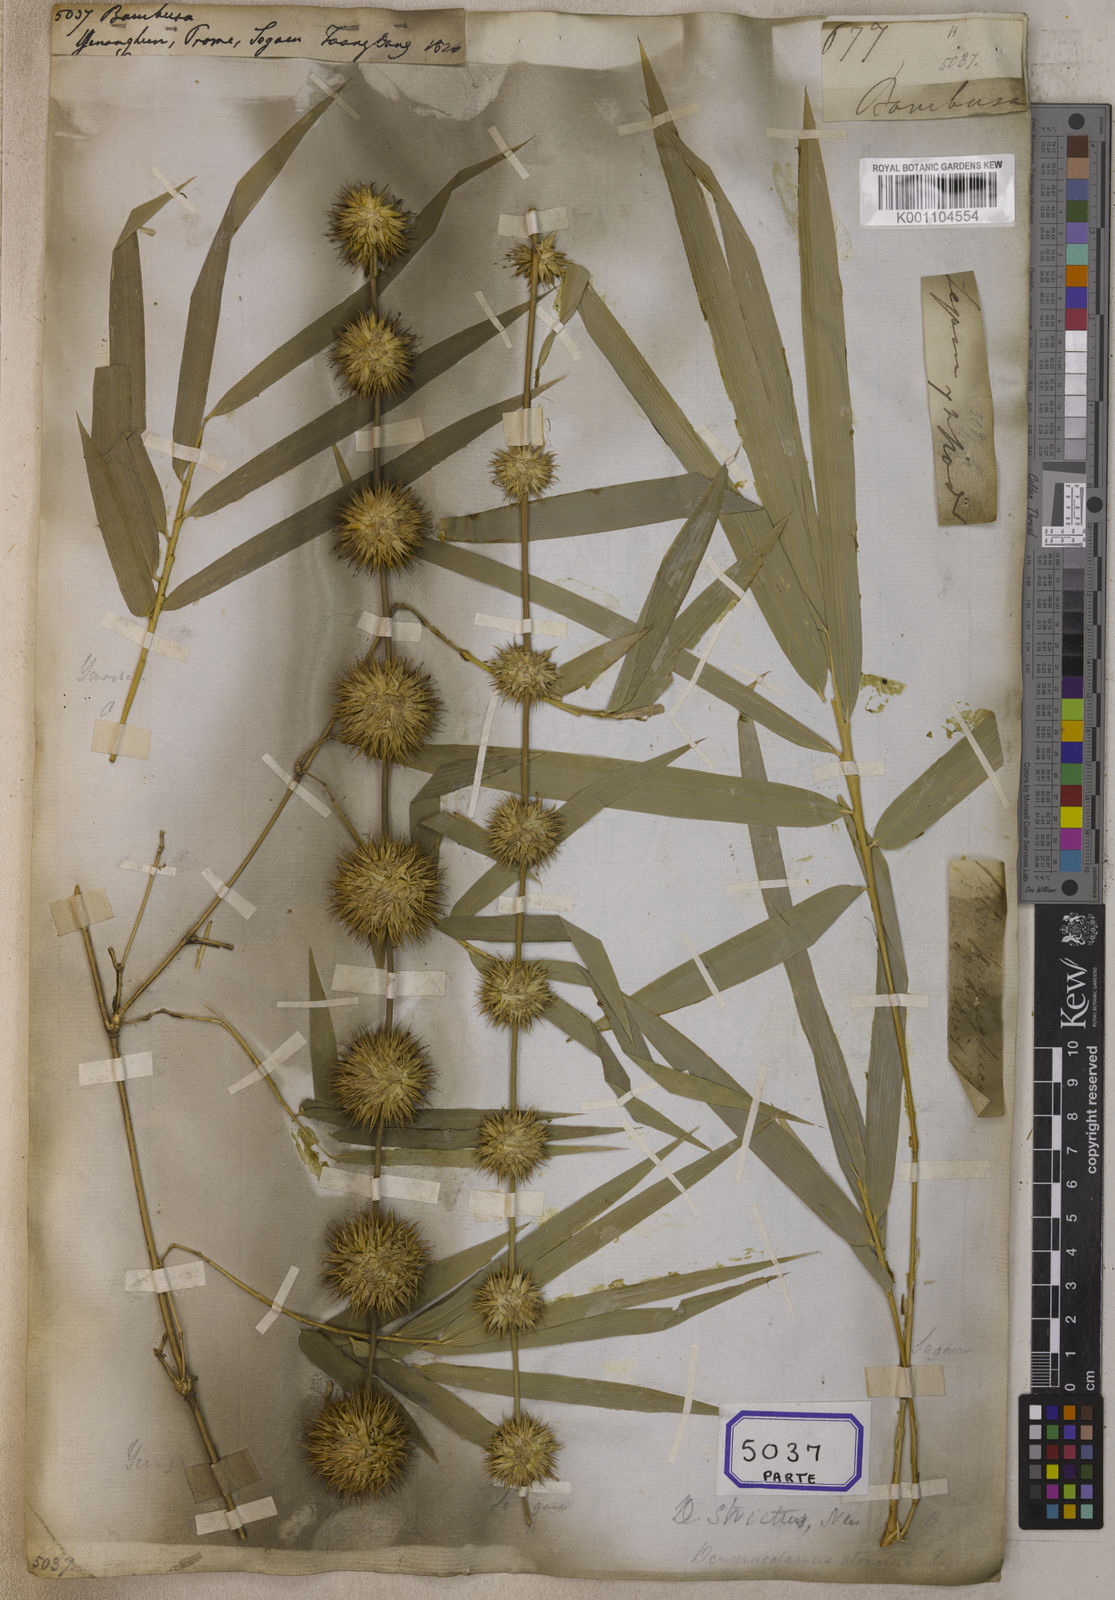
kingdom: Plantae
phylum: Tracheophyta
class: Liliopsida
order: Poales
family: Poaceae
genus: Bambusa
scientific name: Bambusa
